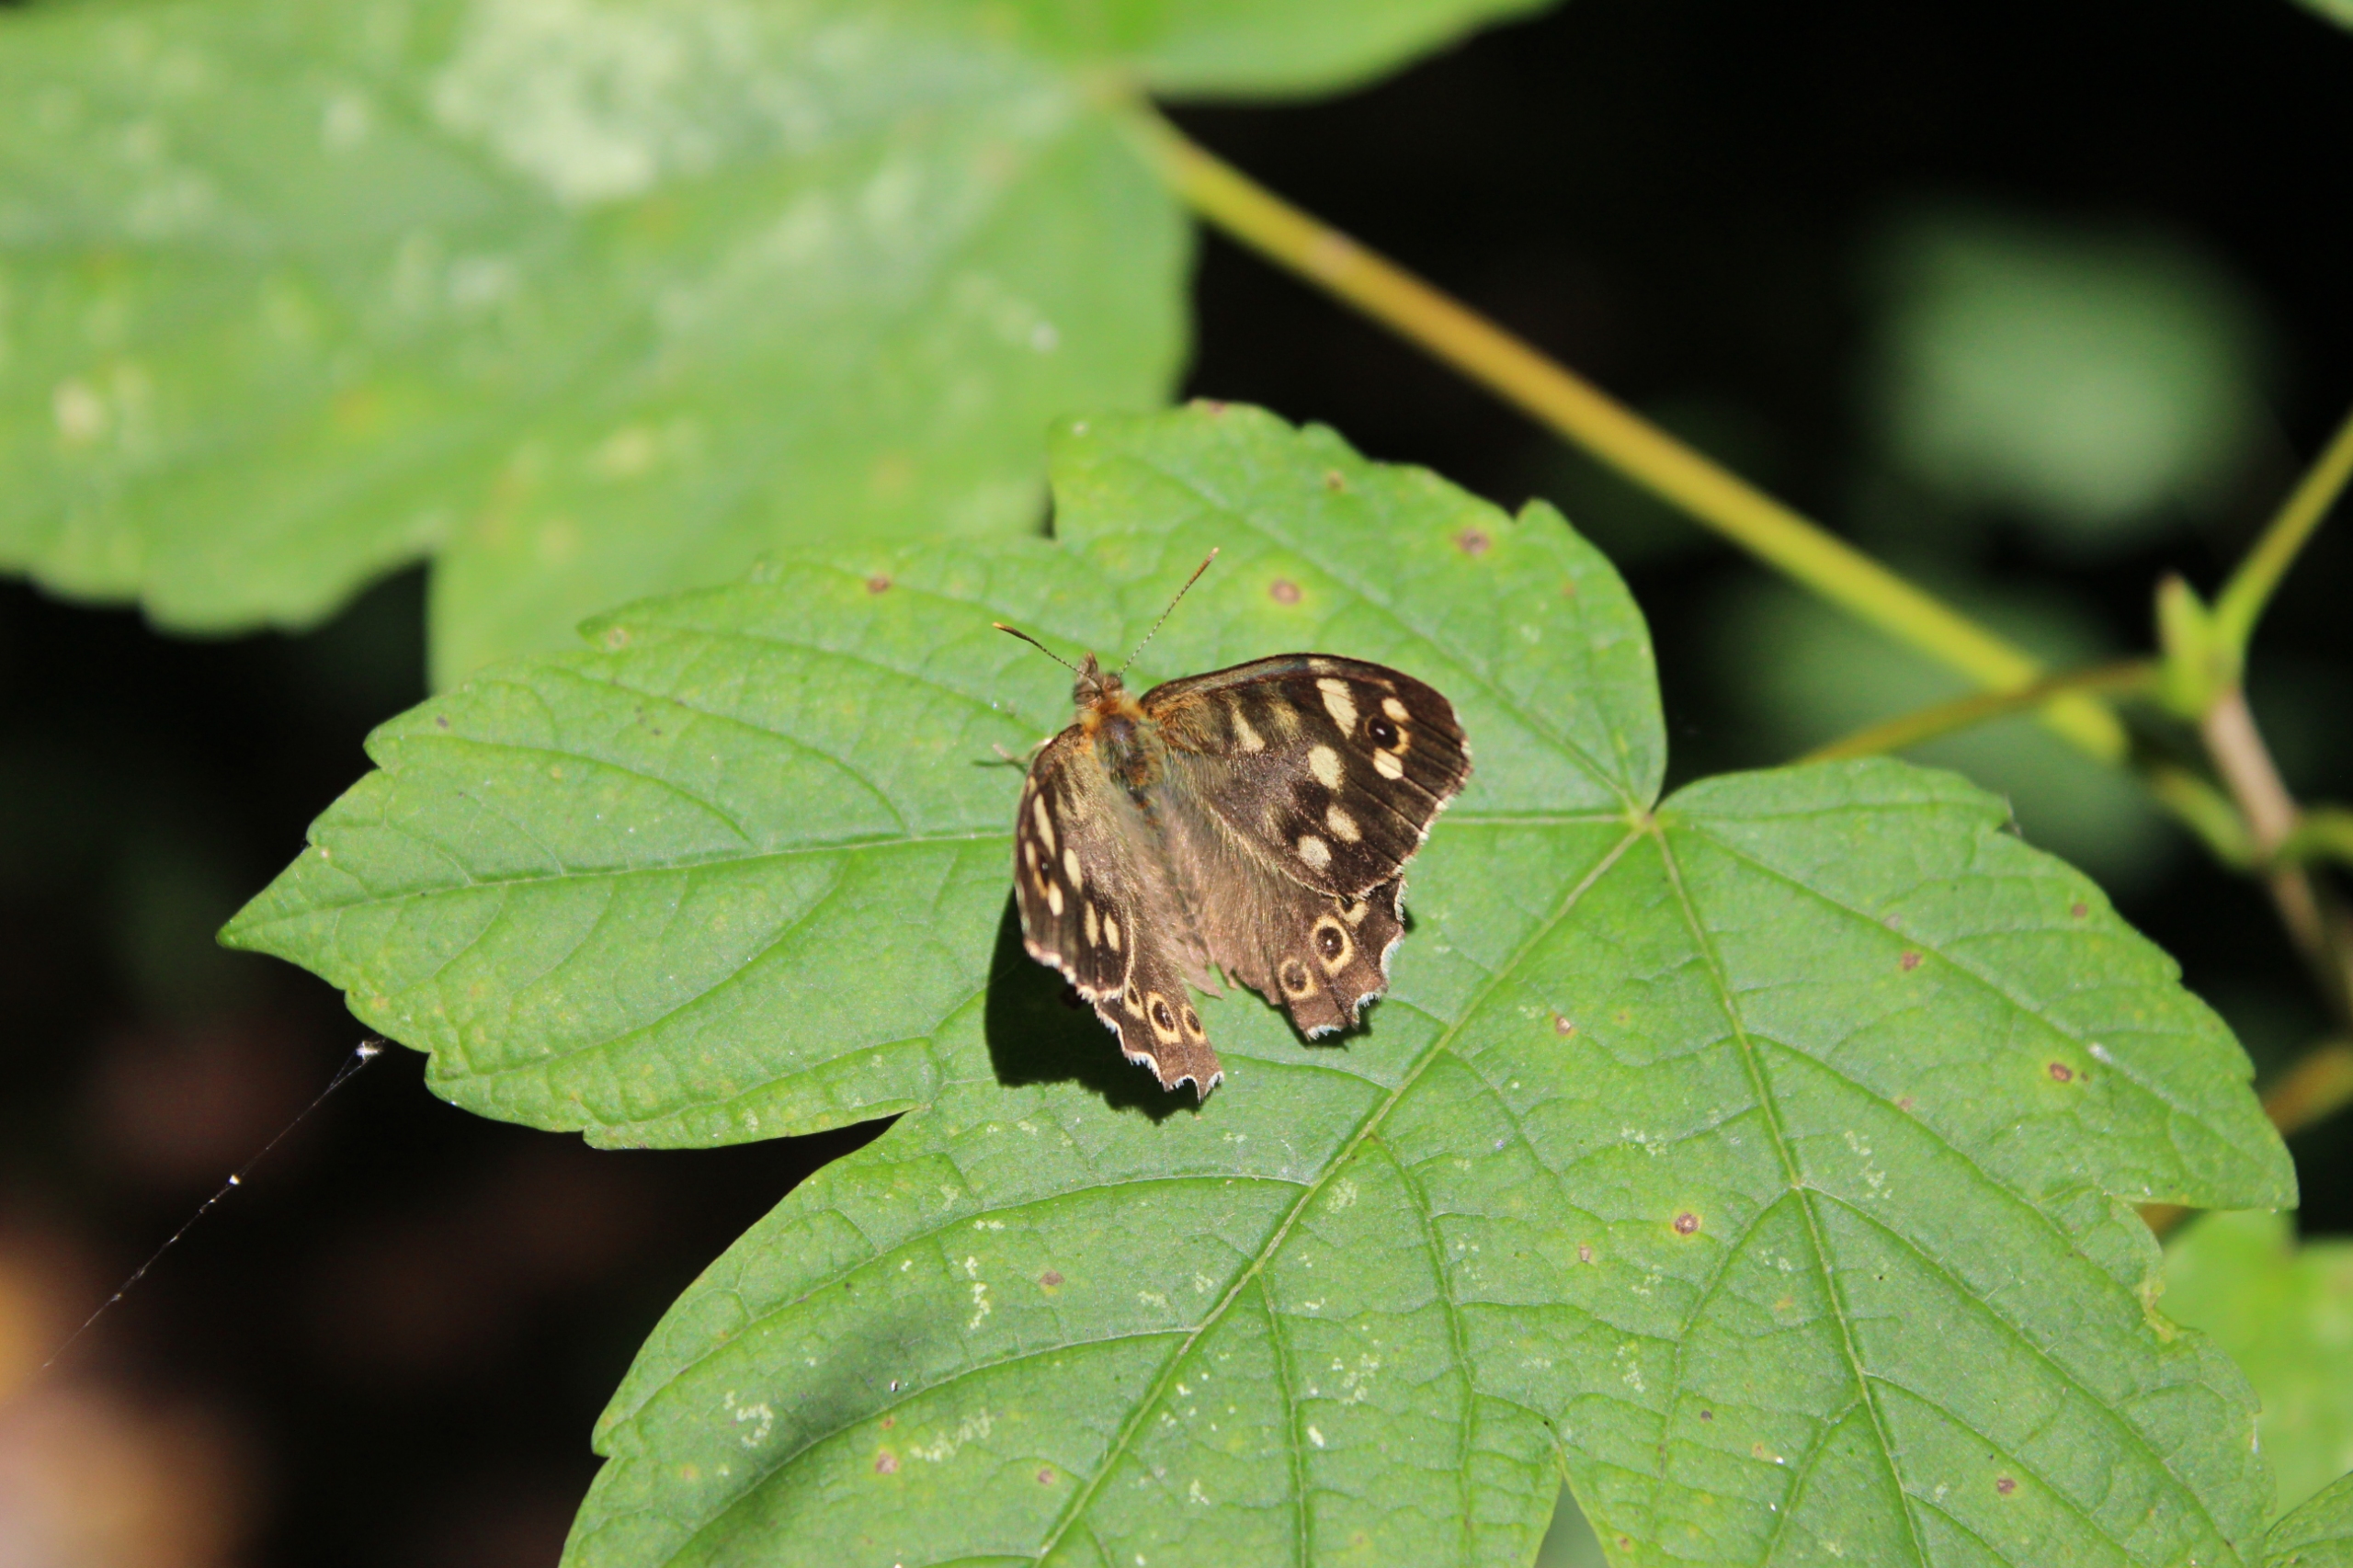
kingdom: Animalia
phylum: Arthropoda
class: Insecta
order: Lepidoptera
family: Nymphalidae
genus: Pararge
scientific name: Pararge aegeria
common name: Skovrandøje
